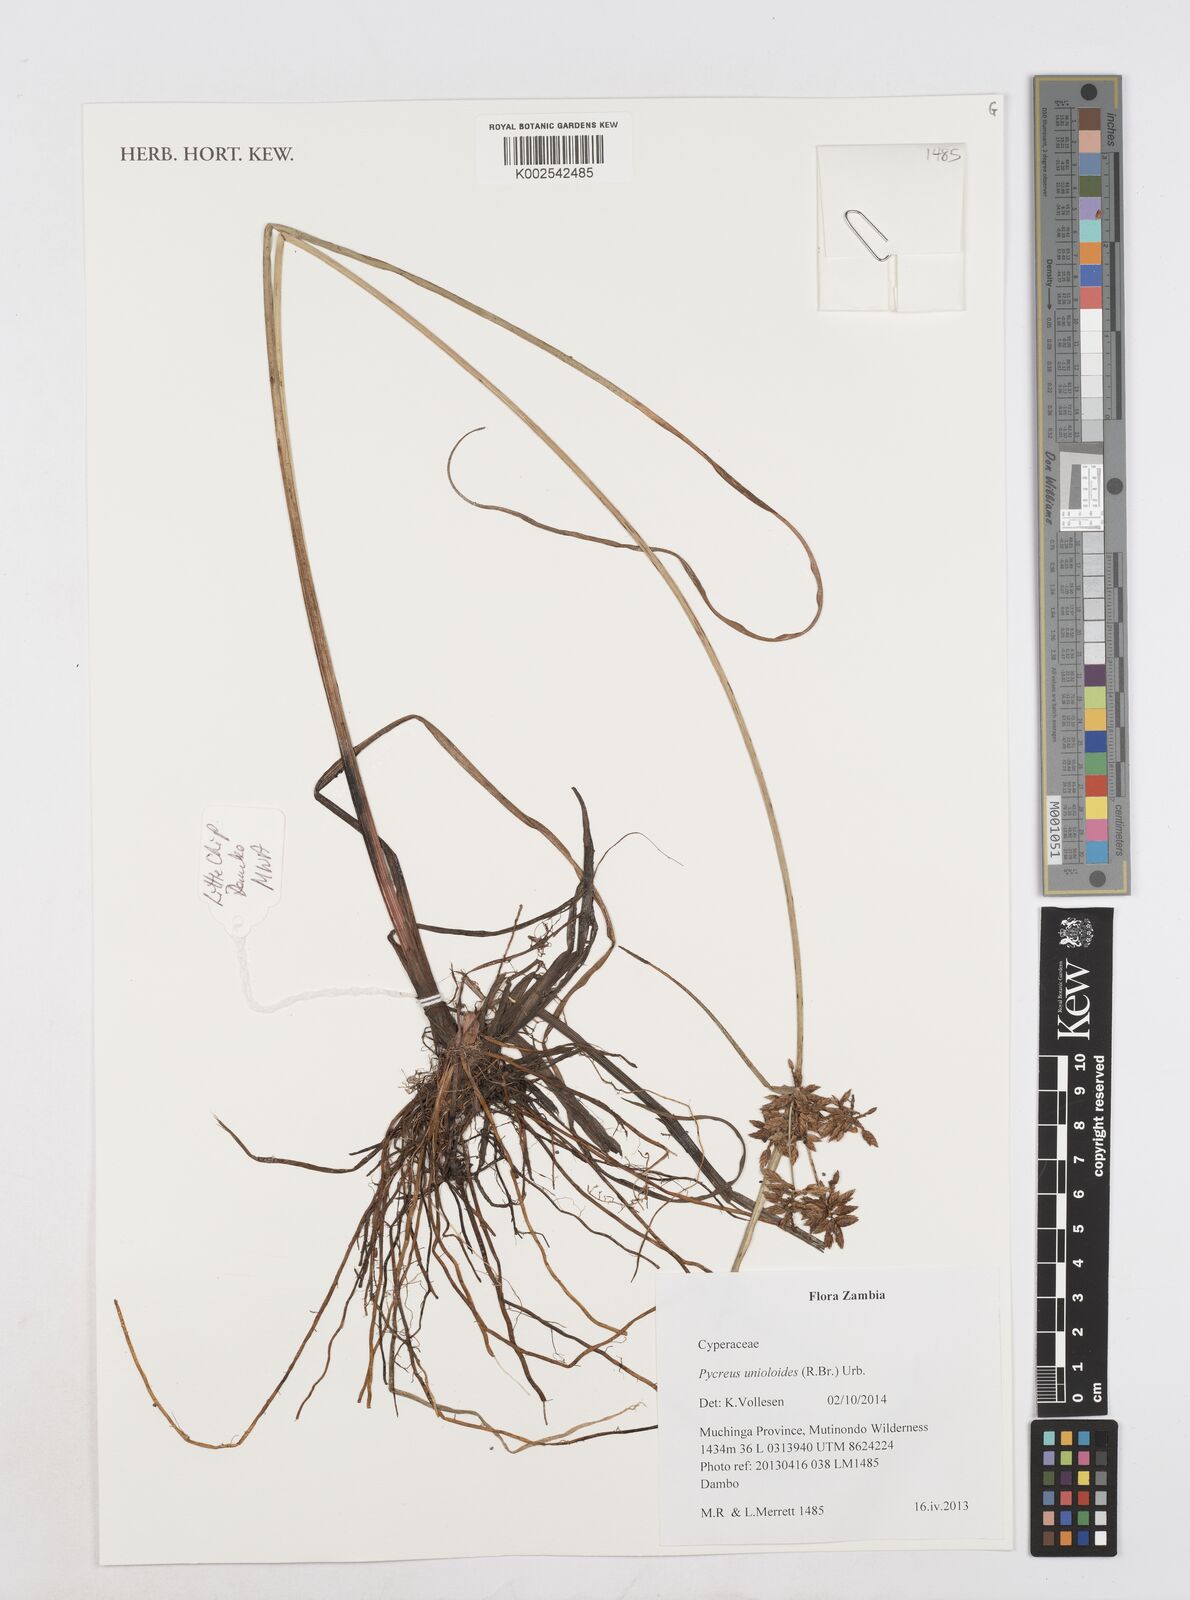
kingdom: Plantae
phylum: Tracheophyta
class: Liliopsida
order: Poales
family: Cyperaceae
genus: Cyperus
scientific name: Cyperus unioloides
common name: Uniola flatsedge
